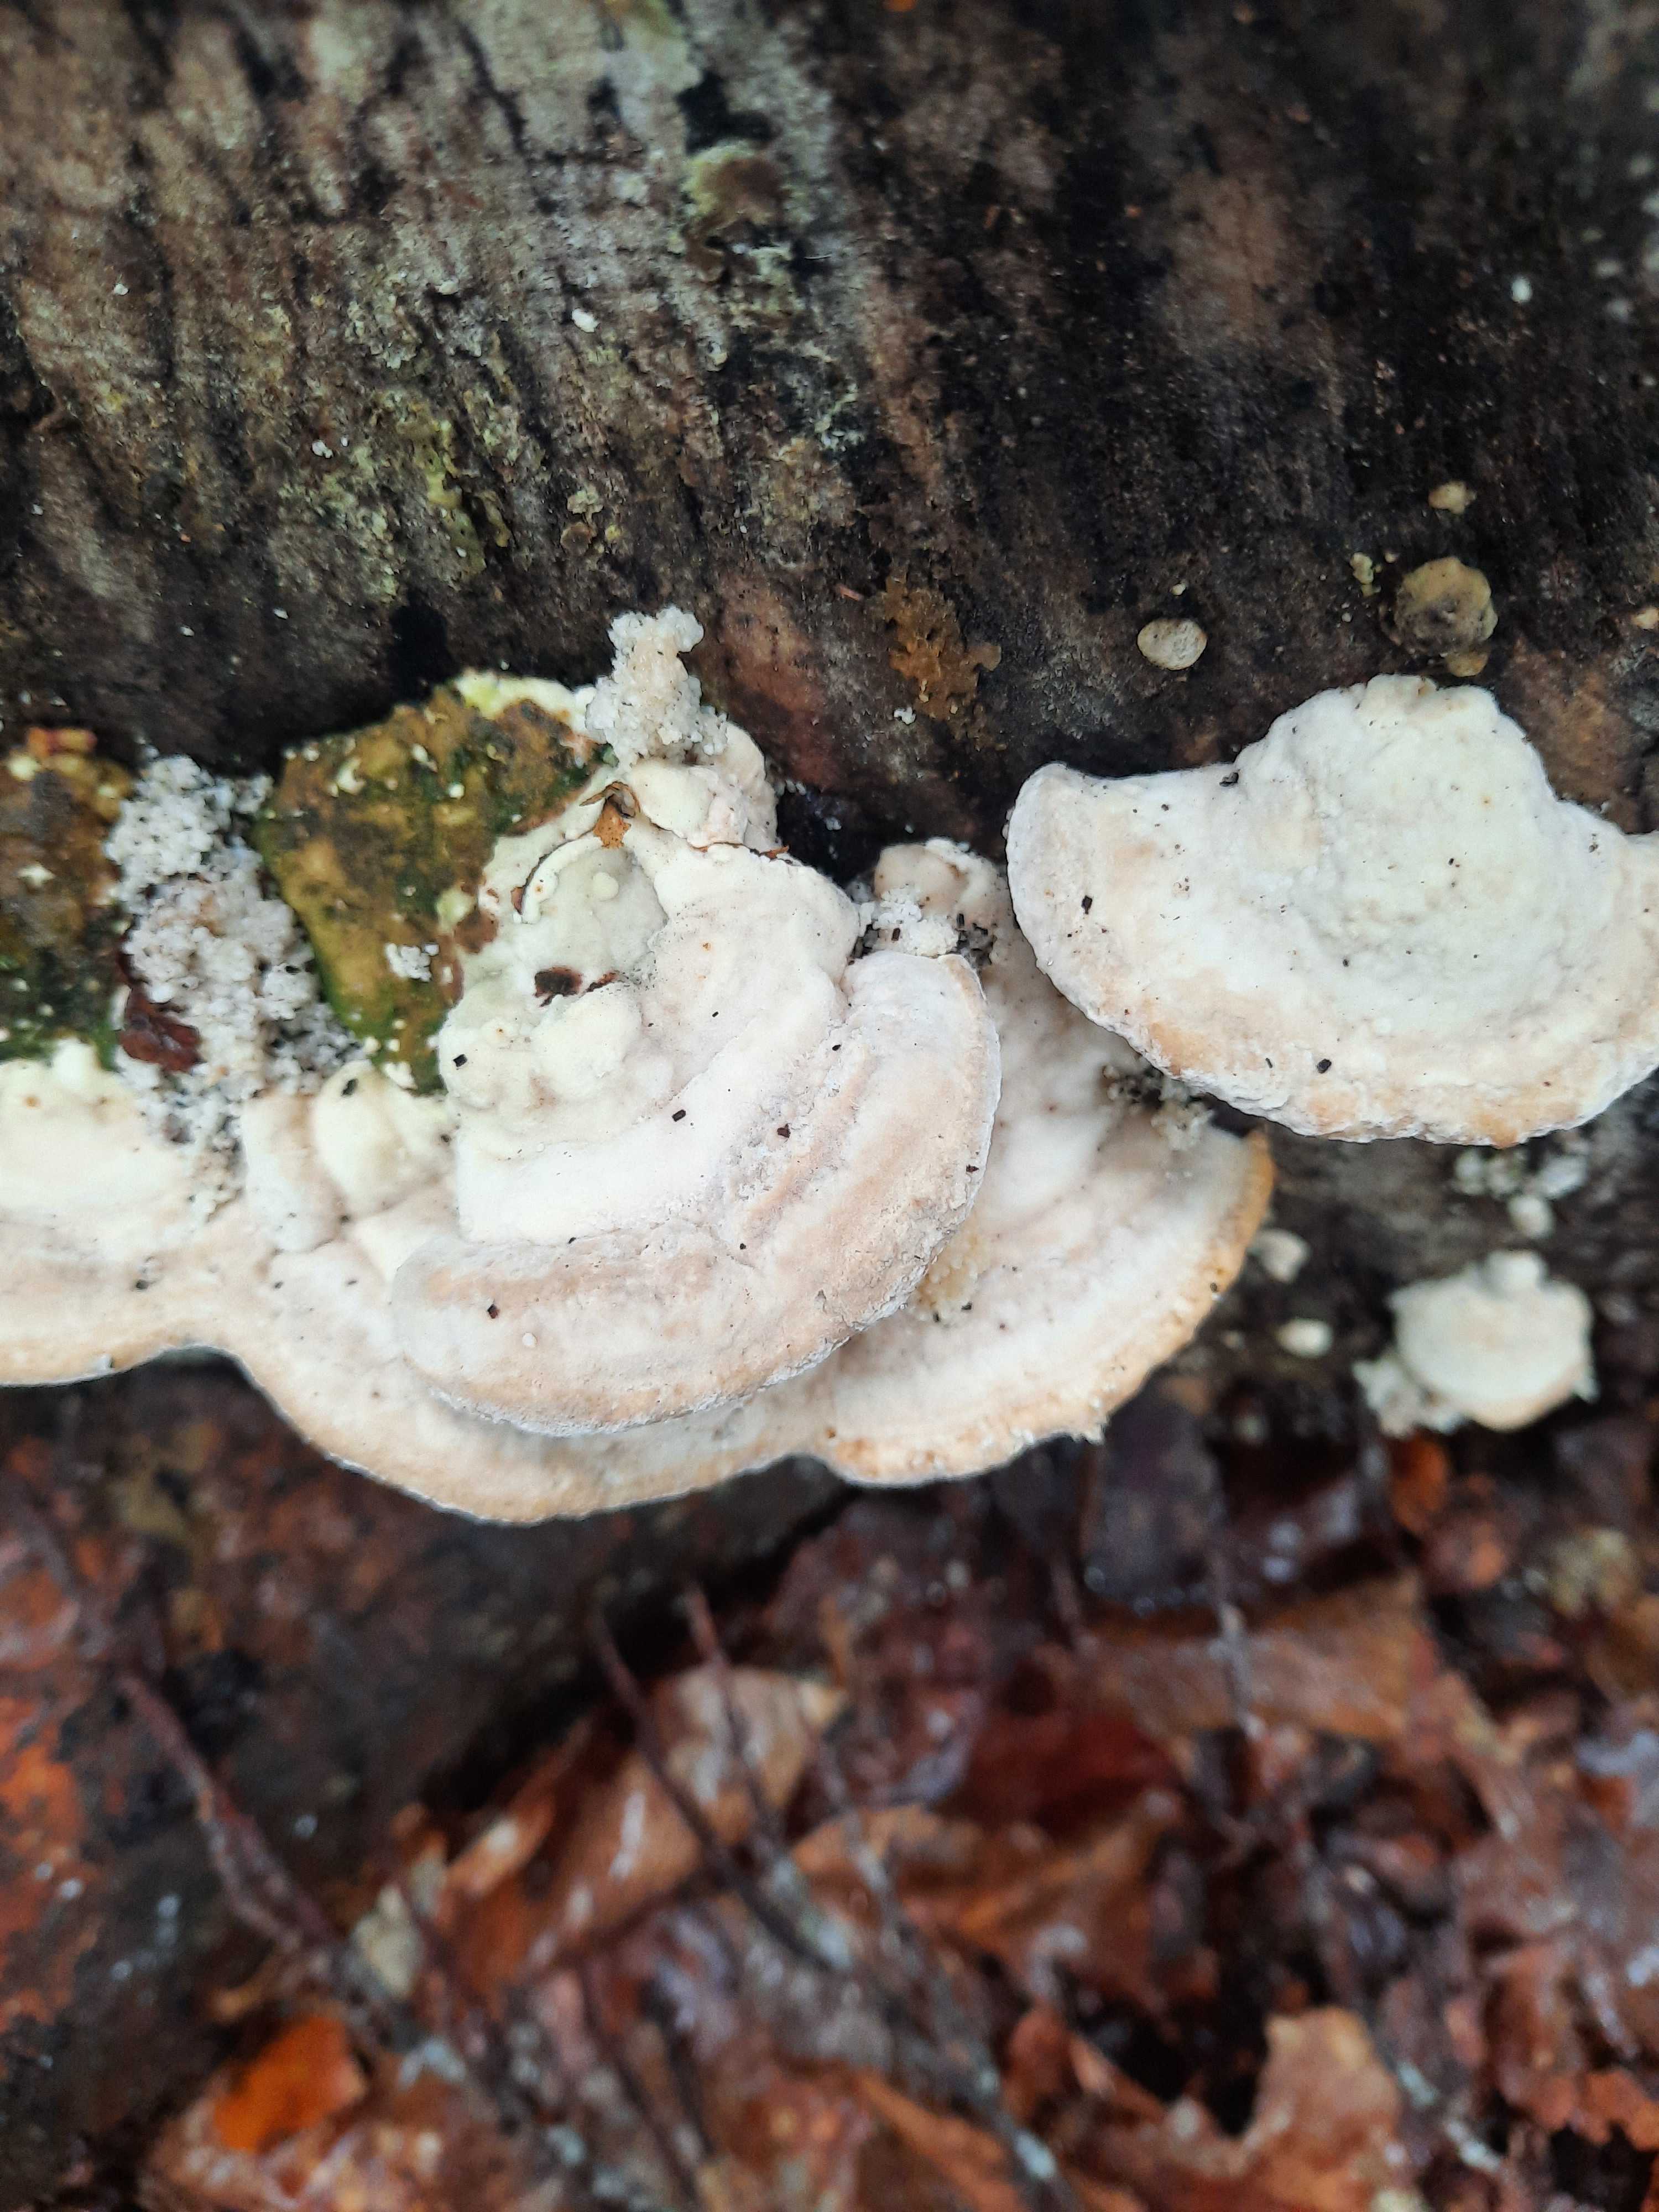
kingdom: Fungi
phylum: Basidiomycota
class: Agaricomycetes
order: Polyporales
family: Polyporaceae
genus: Trametes
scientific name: Trametes gibbosa
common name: puklet læderporesvamp
